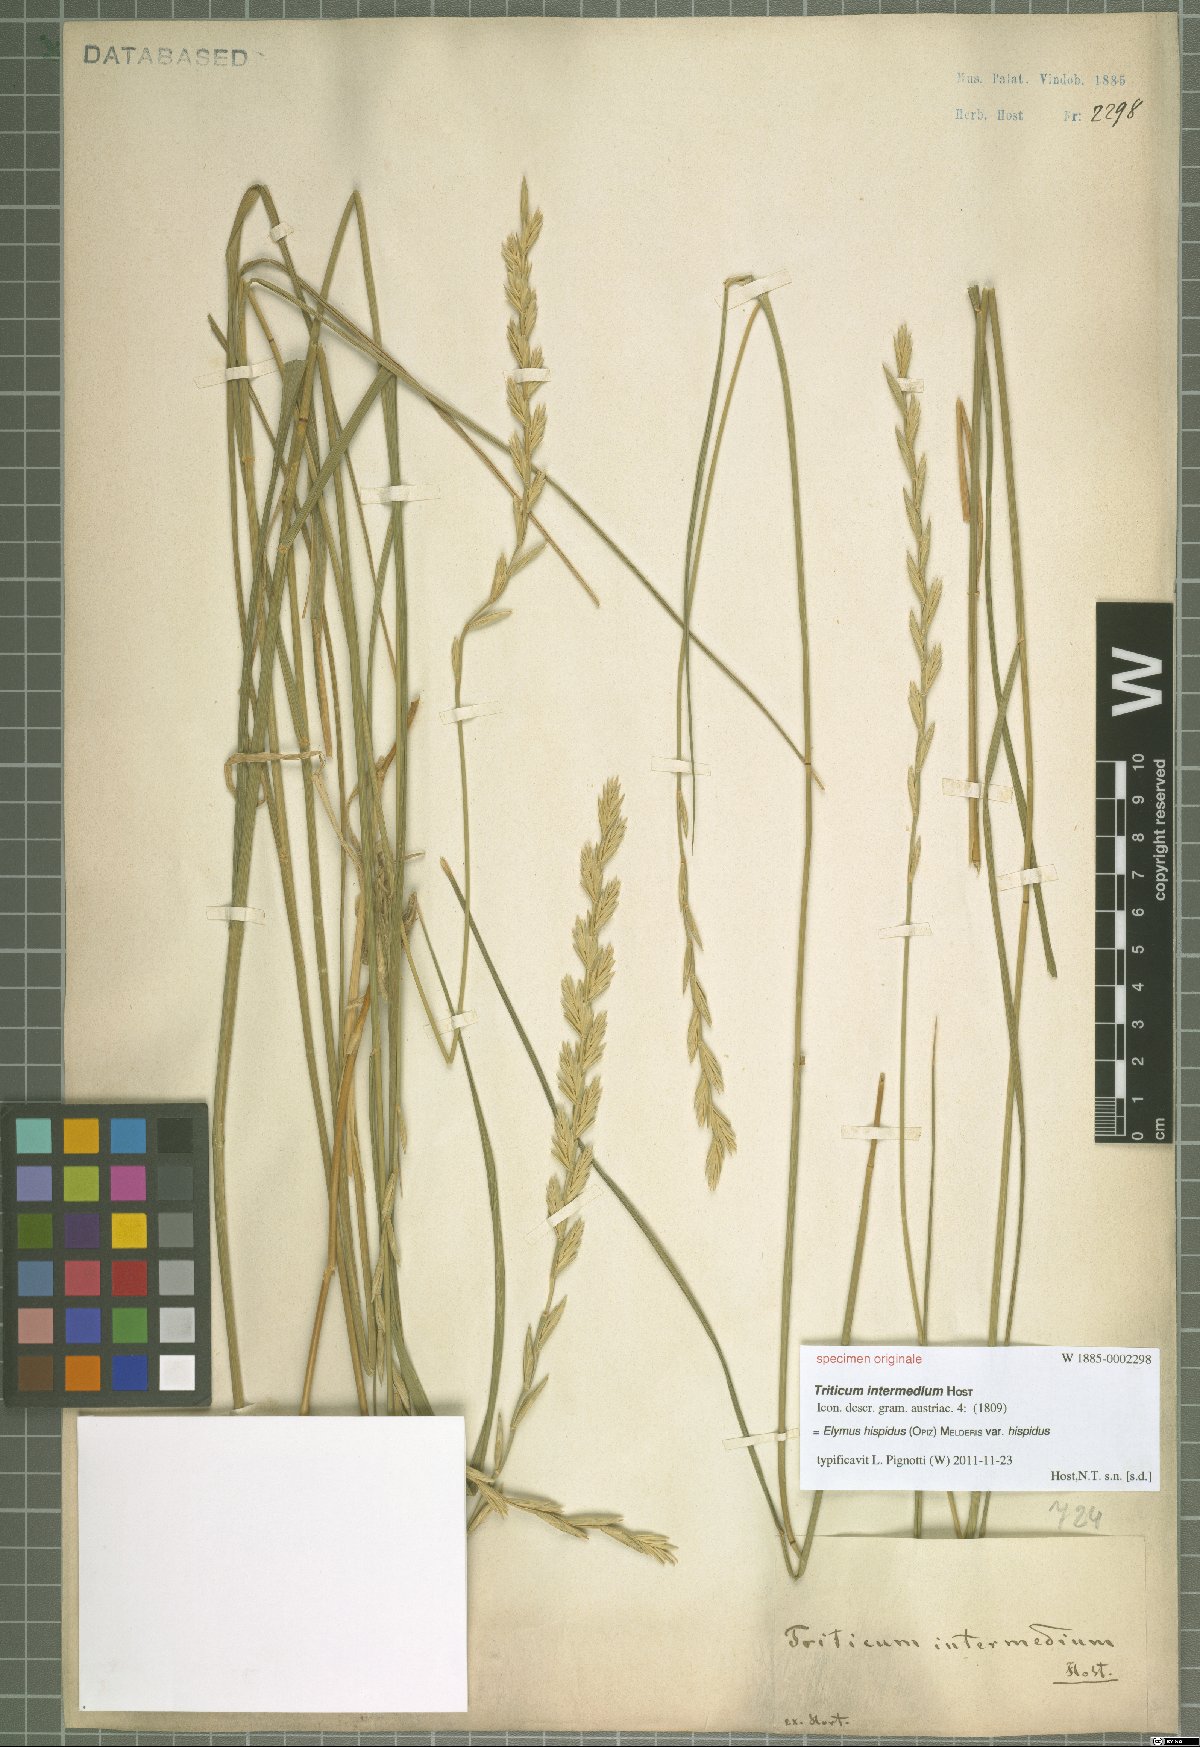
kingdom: Plantae
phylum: Tracheophyta
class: Liliopsida
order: Poales
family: Poaceae
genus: Thinopyrum
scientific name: Thinopyrum intermedium
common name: Intermediate wheatgrass
